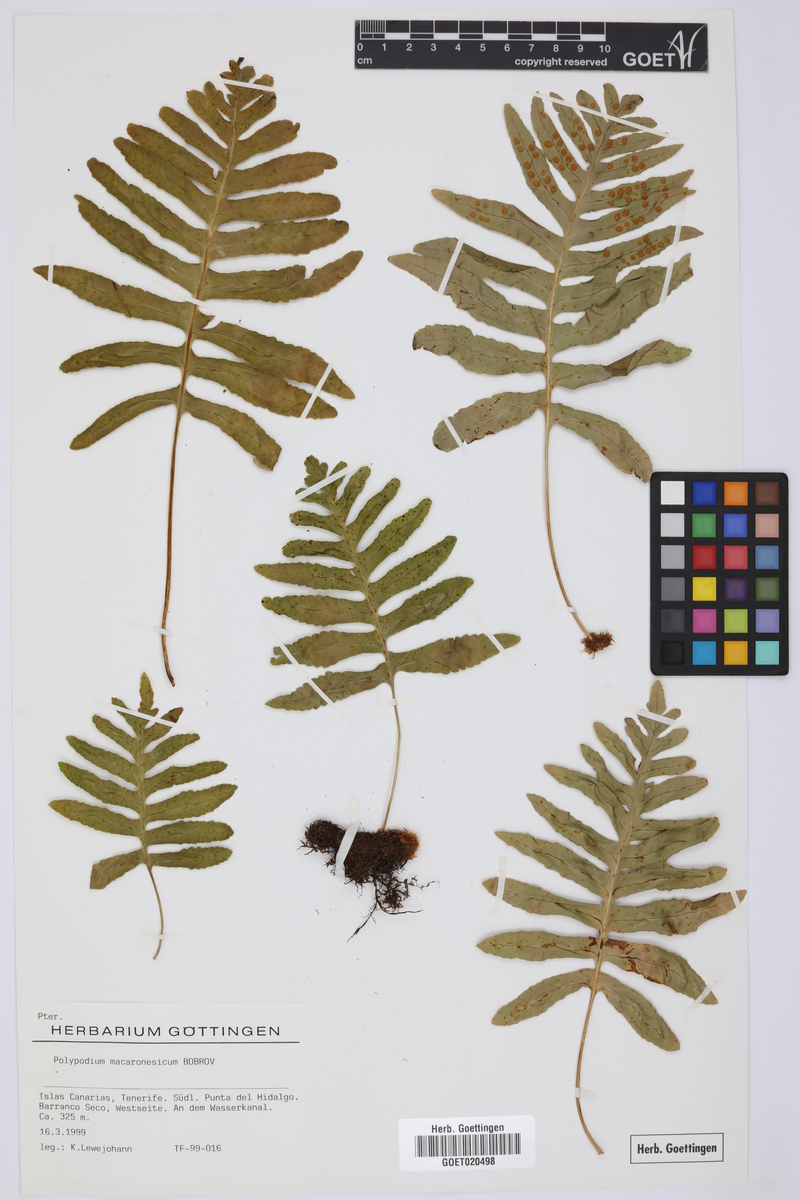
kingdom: Plantae
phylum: Tracheophyta
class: Polypodiopsida
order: Polypodiales
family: Polypodiaceae
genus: Polypodium
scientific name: Polypodium macaronesicum
